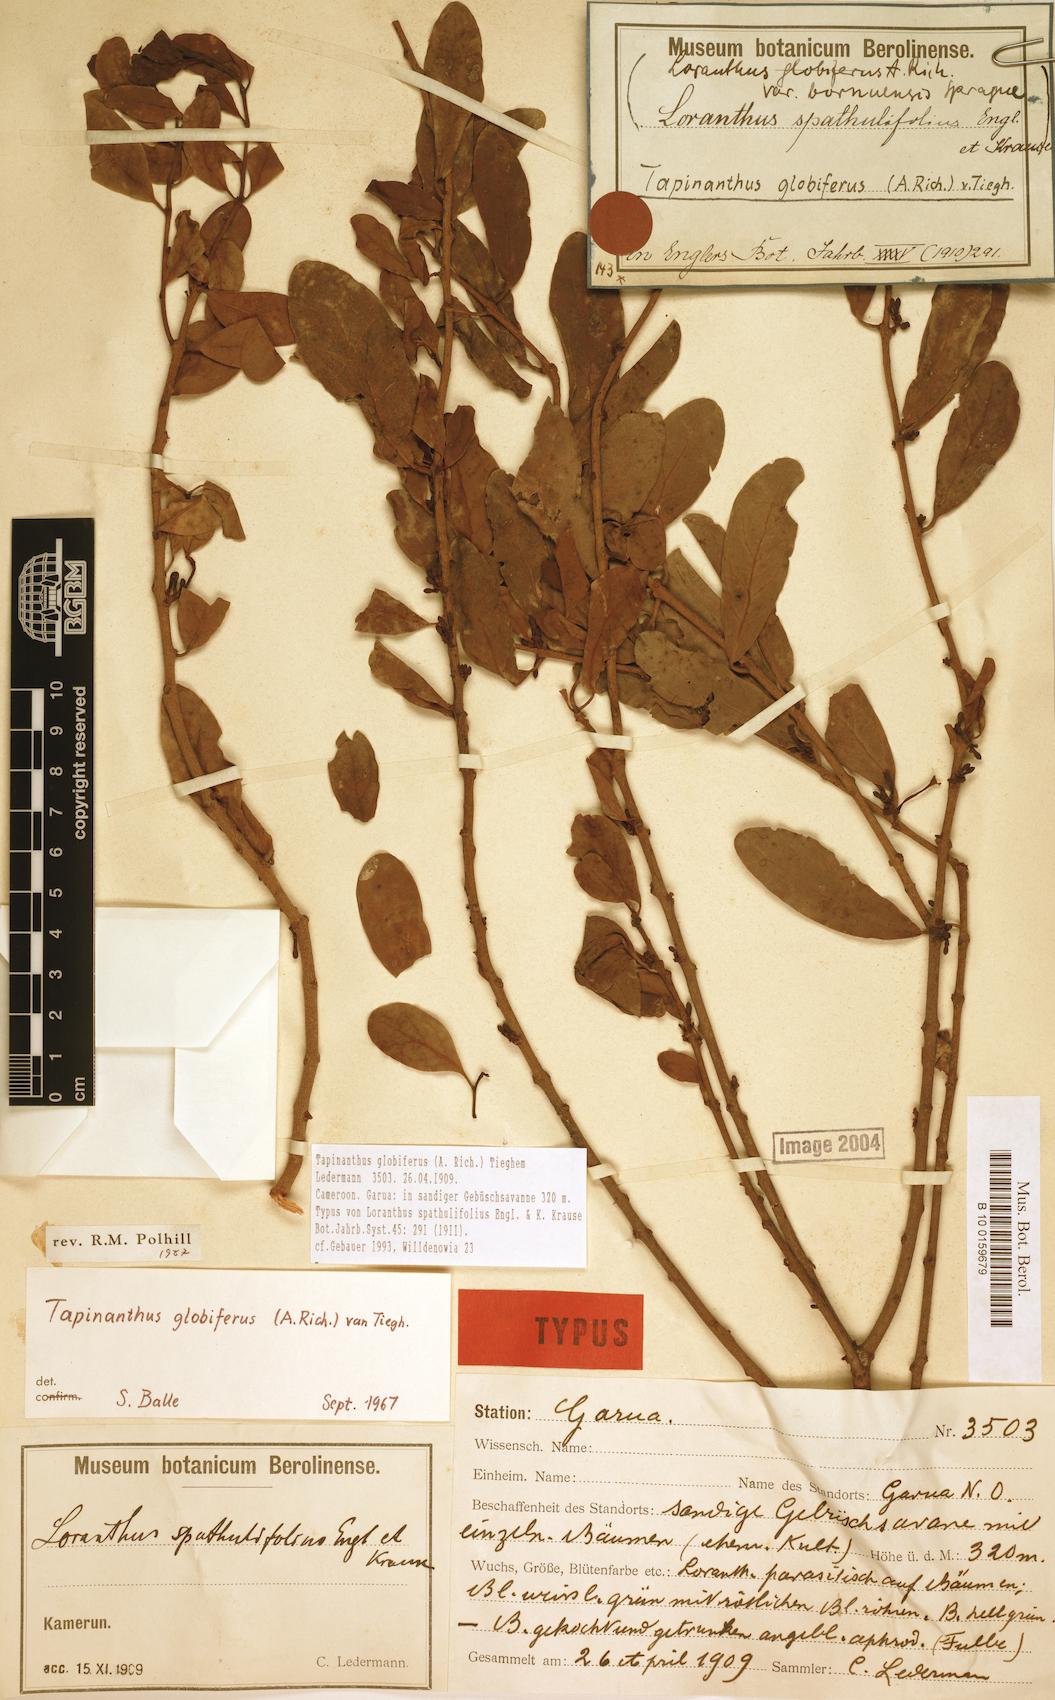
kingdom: Plantae
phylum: Tracheophyta
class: Magnoliopsida
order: Santalales
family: Loranthaceae
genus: Tapinanthus
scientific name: Tapinanthus globiferus
